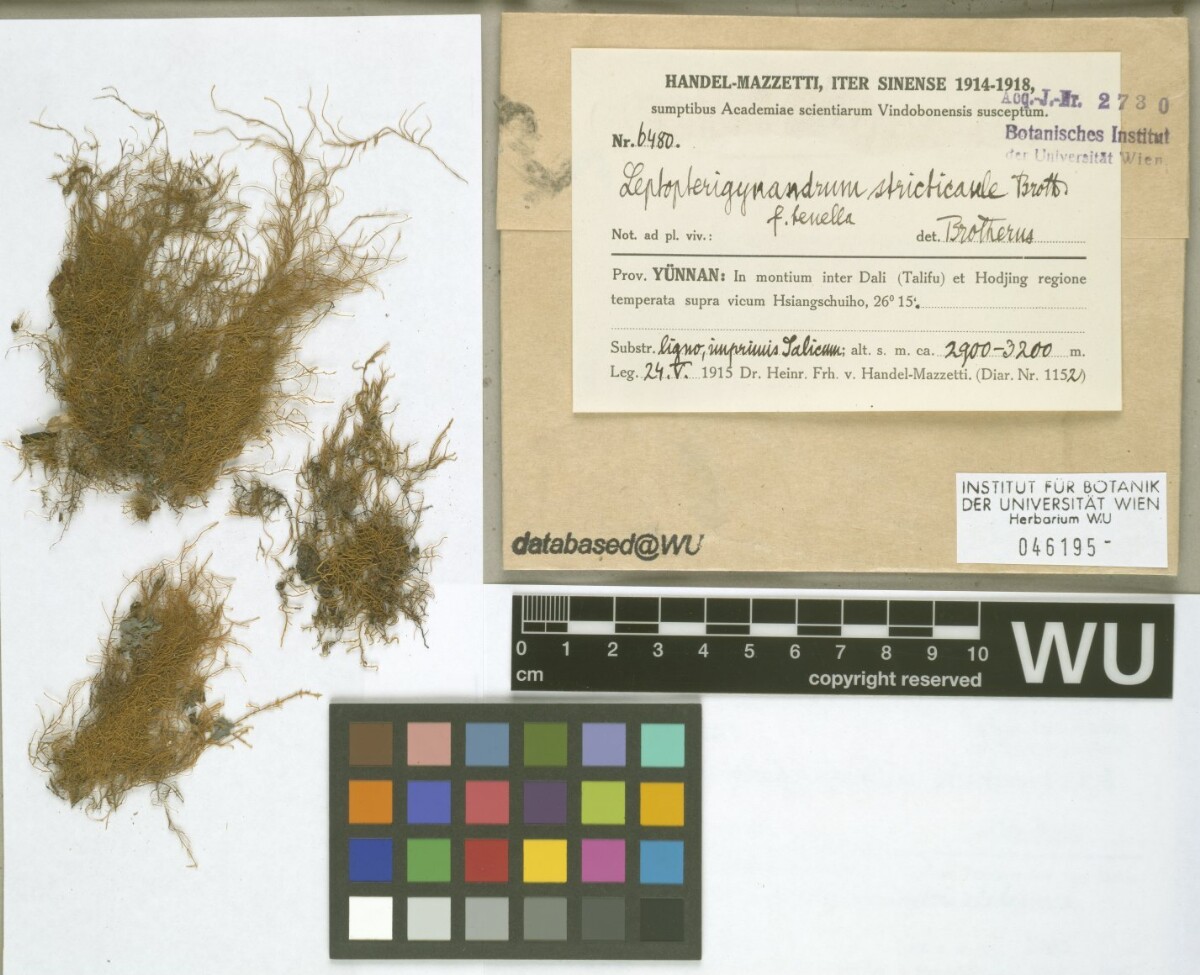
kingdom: Plantae
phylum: Bryophyta
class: Bryopsida
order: Hypnales
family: Taxiphyllaceae
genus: Leptopterigynandrum
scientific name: Leptopterigynandrum stricticaule
